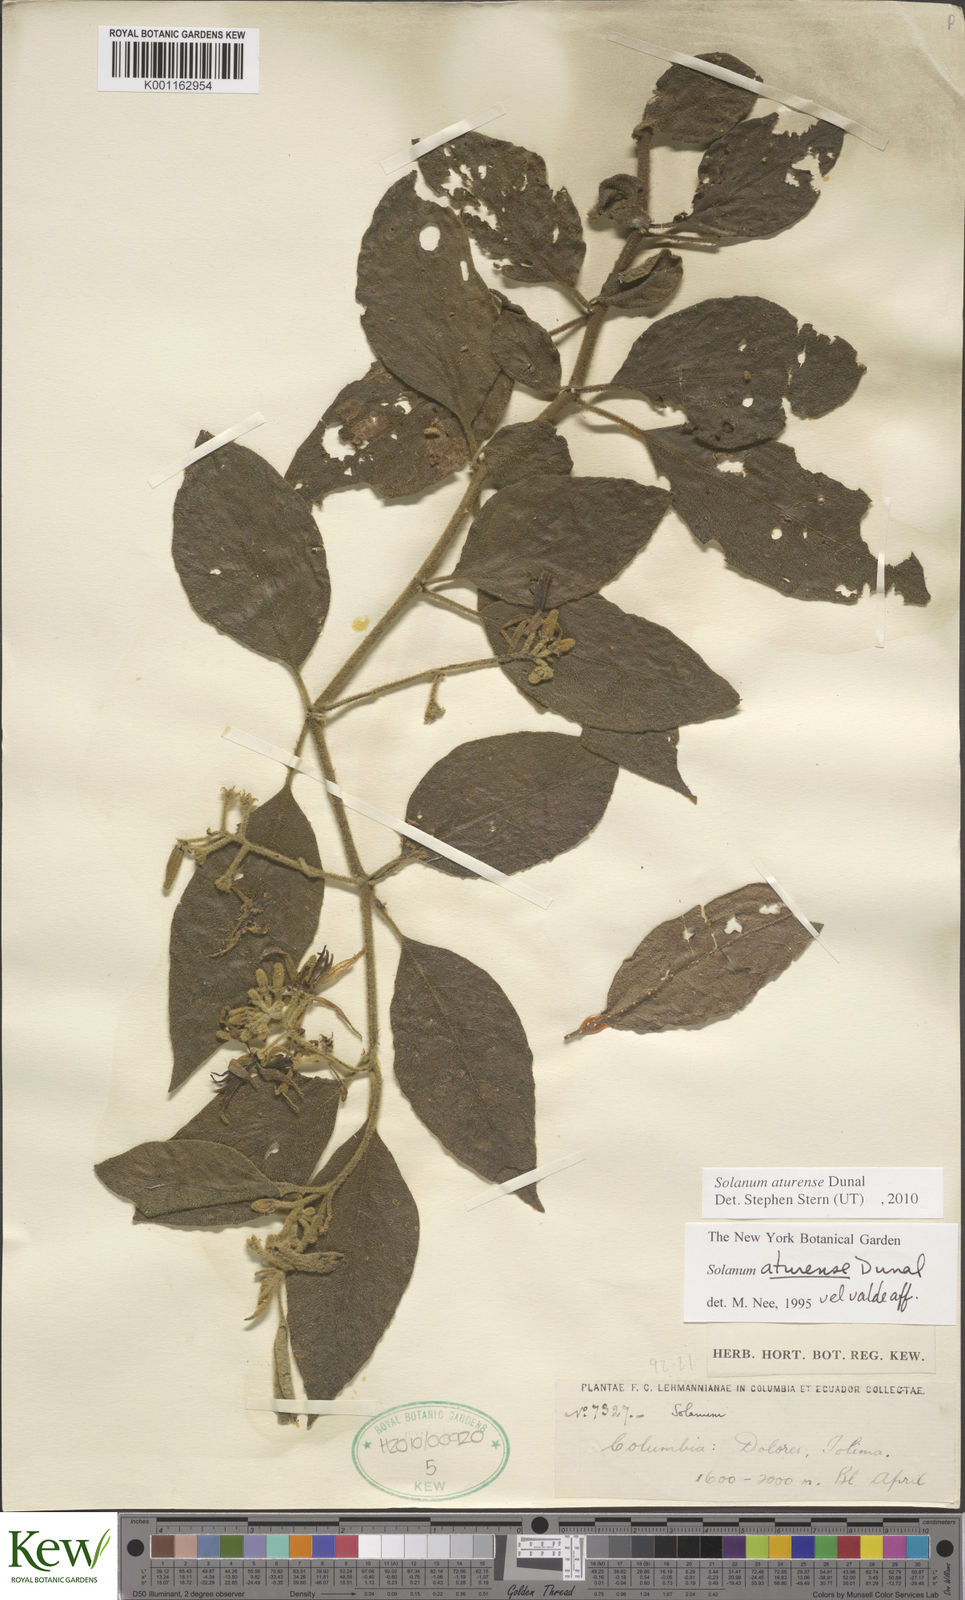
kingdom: Plantae
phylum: Tracheophyta
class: Magnoliopsida
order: Solanales
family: Solanaceae
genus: Solanum
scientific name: Solanum aturense
